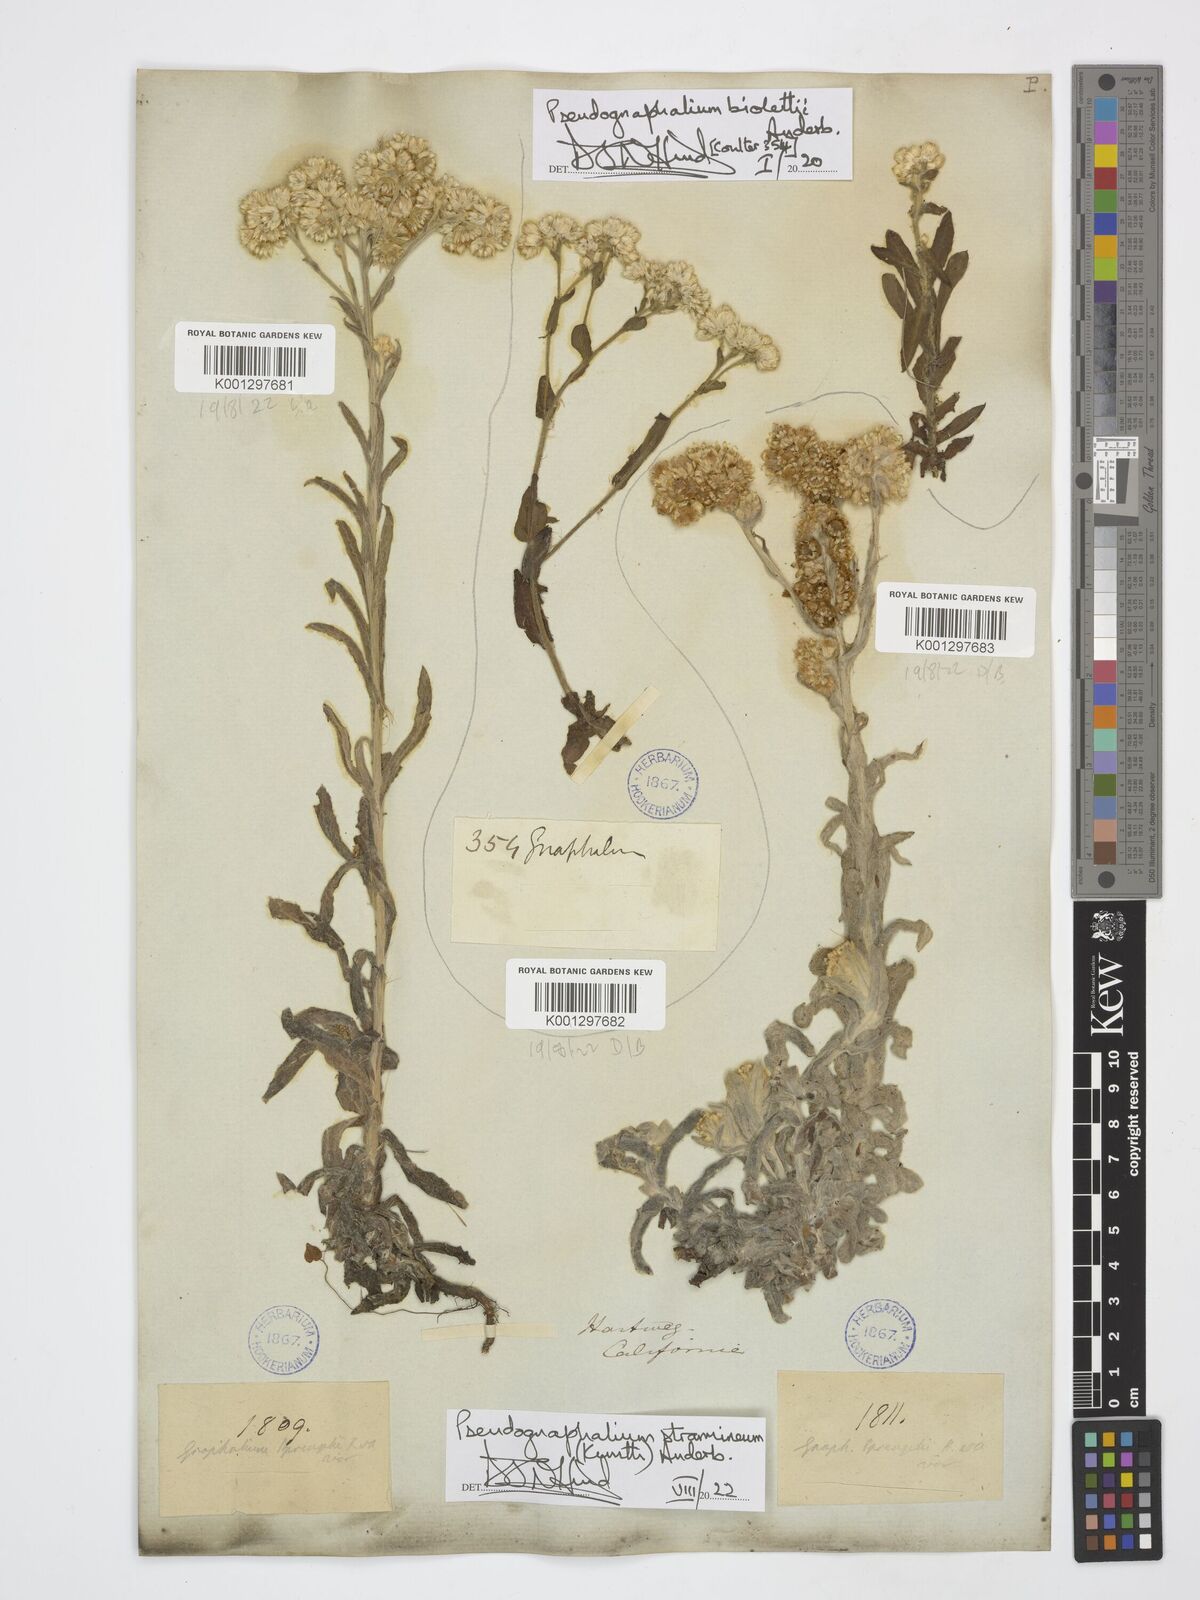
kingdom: Plantae
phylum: Tracheophyta
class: Magnoliopsida
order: Asterales
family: Asteraceae
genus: Pseudognaphalium
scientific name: Pseudognaphalium biolettii
